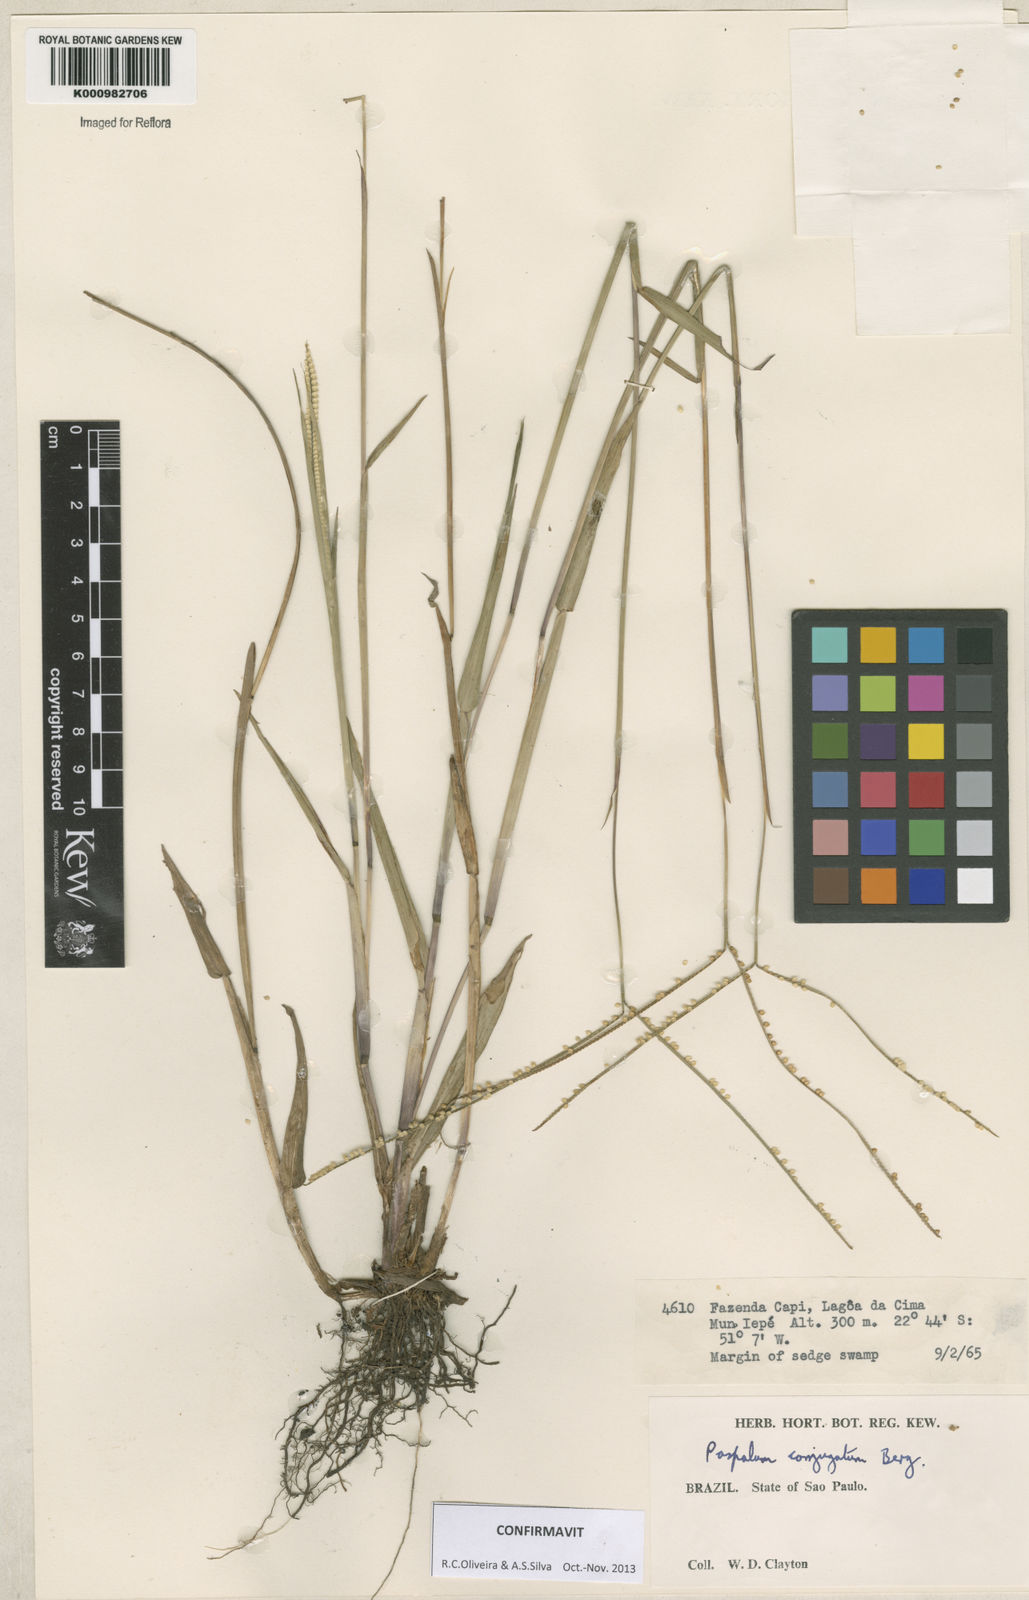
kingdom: Plantae
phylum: Tracheophyta
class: Liliopsida
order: Poales
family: Poaceae
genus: Paspalum
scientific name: Paspalum conjugatum
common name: Hilograss
